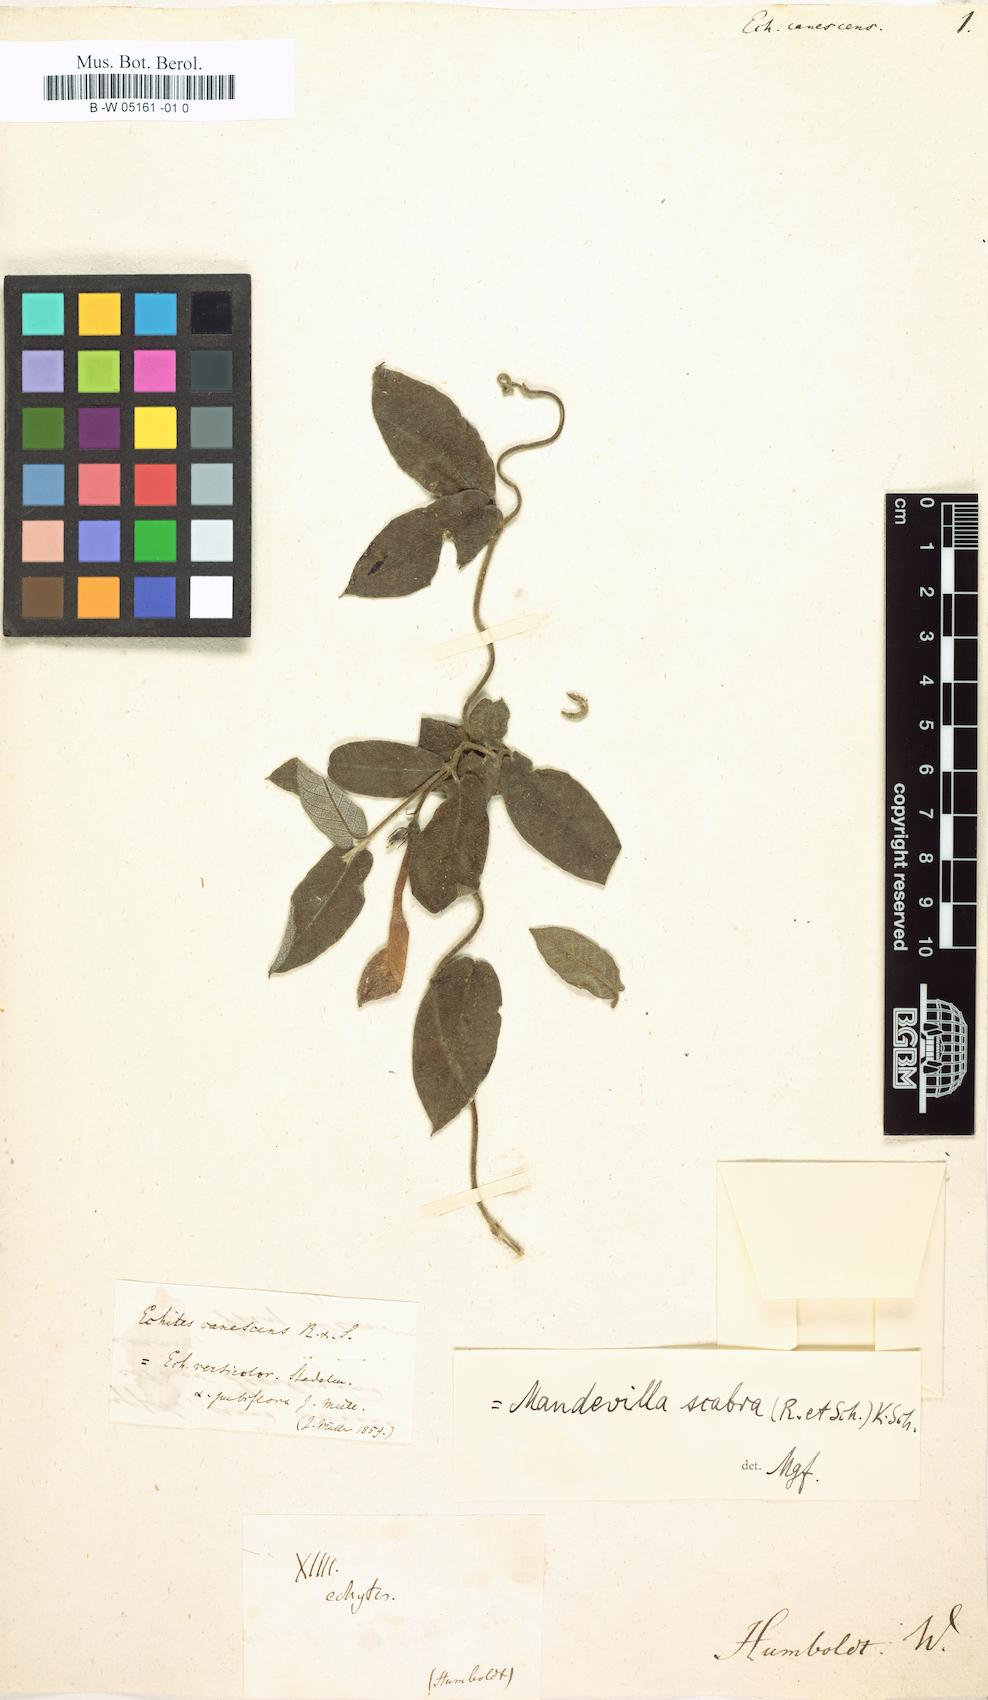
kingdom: Plantae
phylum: Tracheophyta
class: Magnoliopsida
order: Gentianales
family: Apocynaceae
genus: Mandevilla
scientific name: Mandevilla scabra
